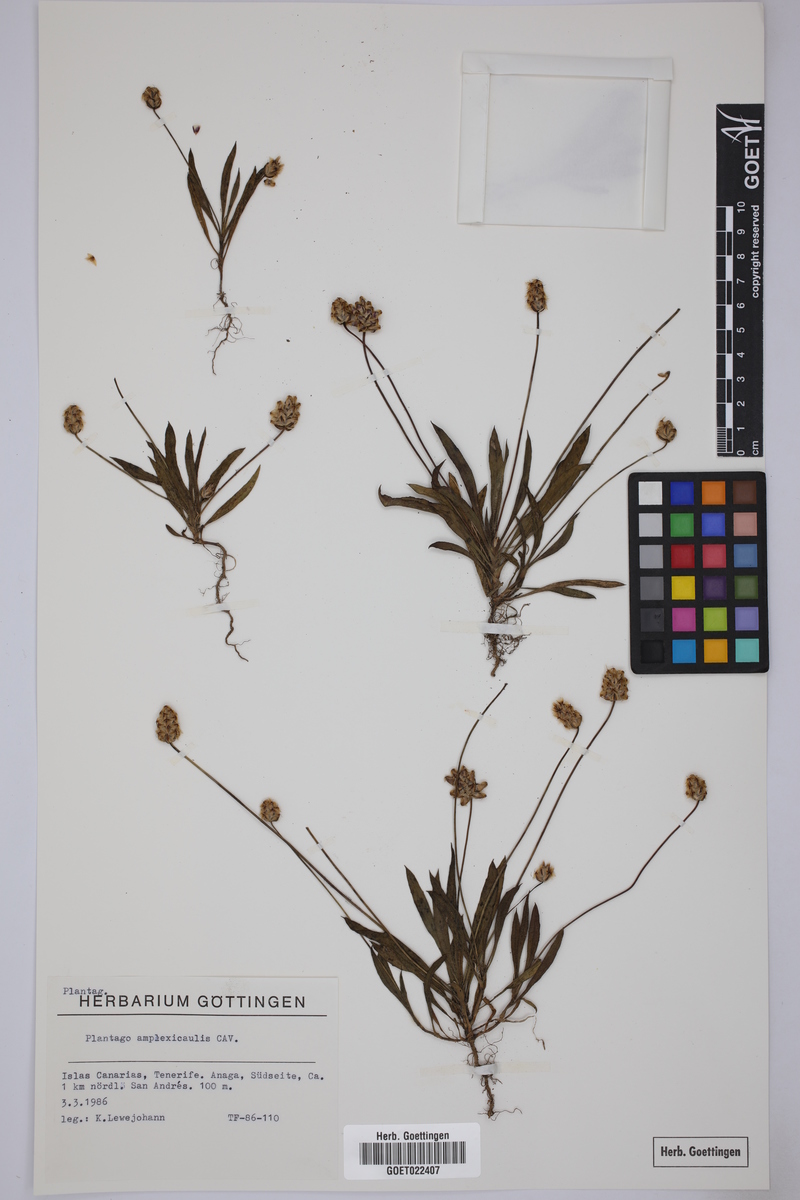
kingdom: Plantae
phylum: Tracheophyta
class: Magnoliopsida
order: Lamiales
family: Plantaginaceae
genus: Plantago
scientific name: Plantago amplexicaulis
